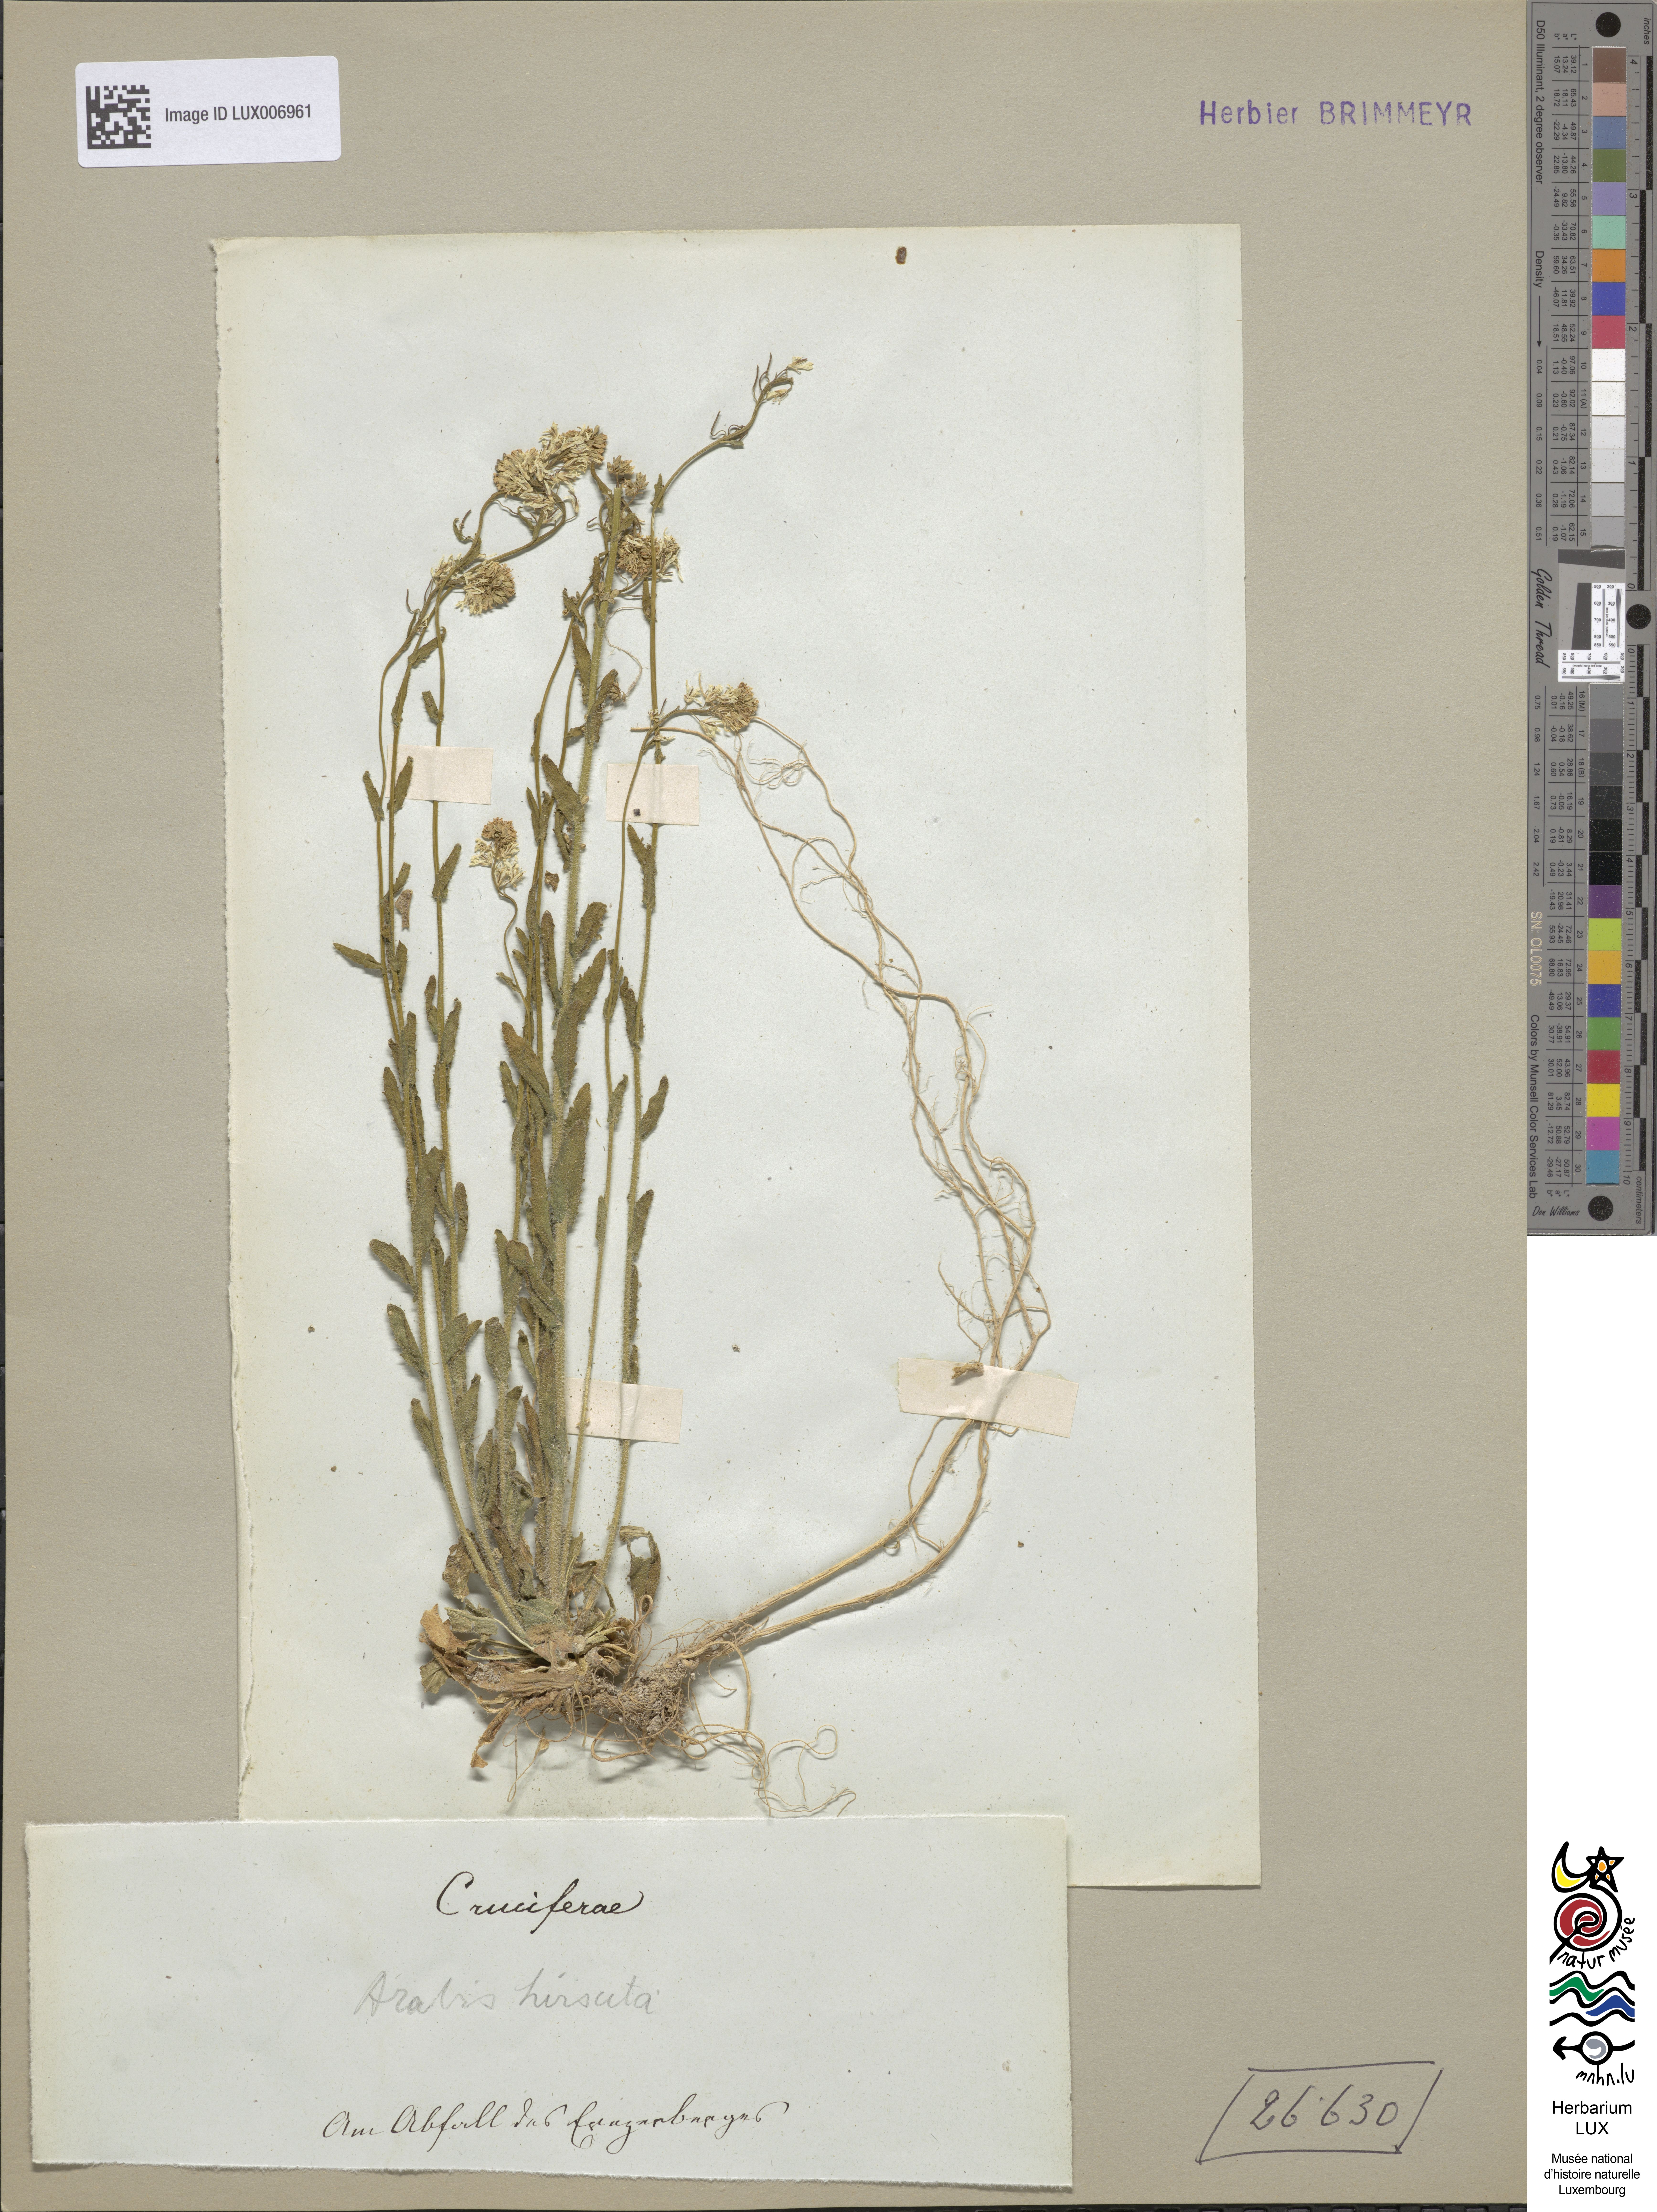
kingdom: Plantae
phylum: Tracheophyta
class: Magnoliopsida
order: Brassicales
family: Brassicaceae
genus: Arabis
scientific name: Arabis hirsuta
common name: Hairy rock-cress
